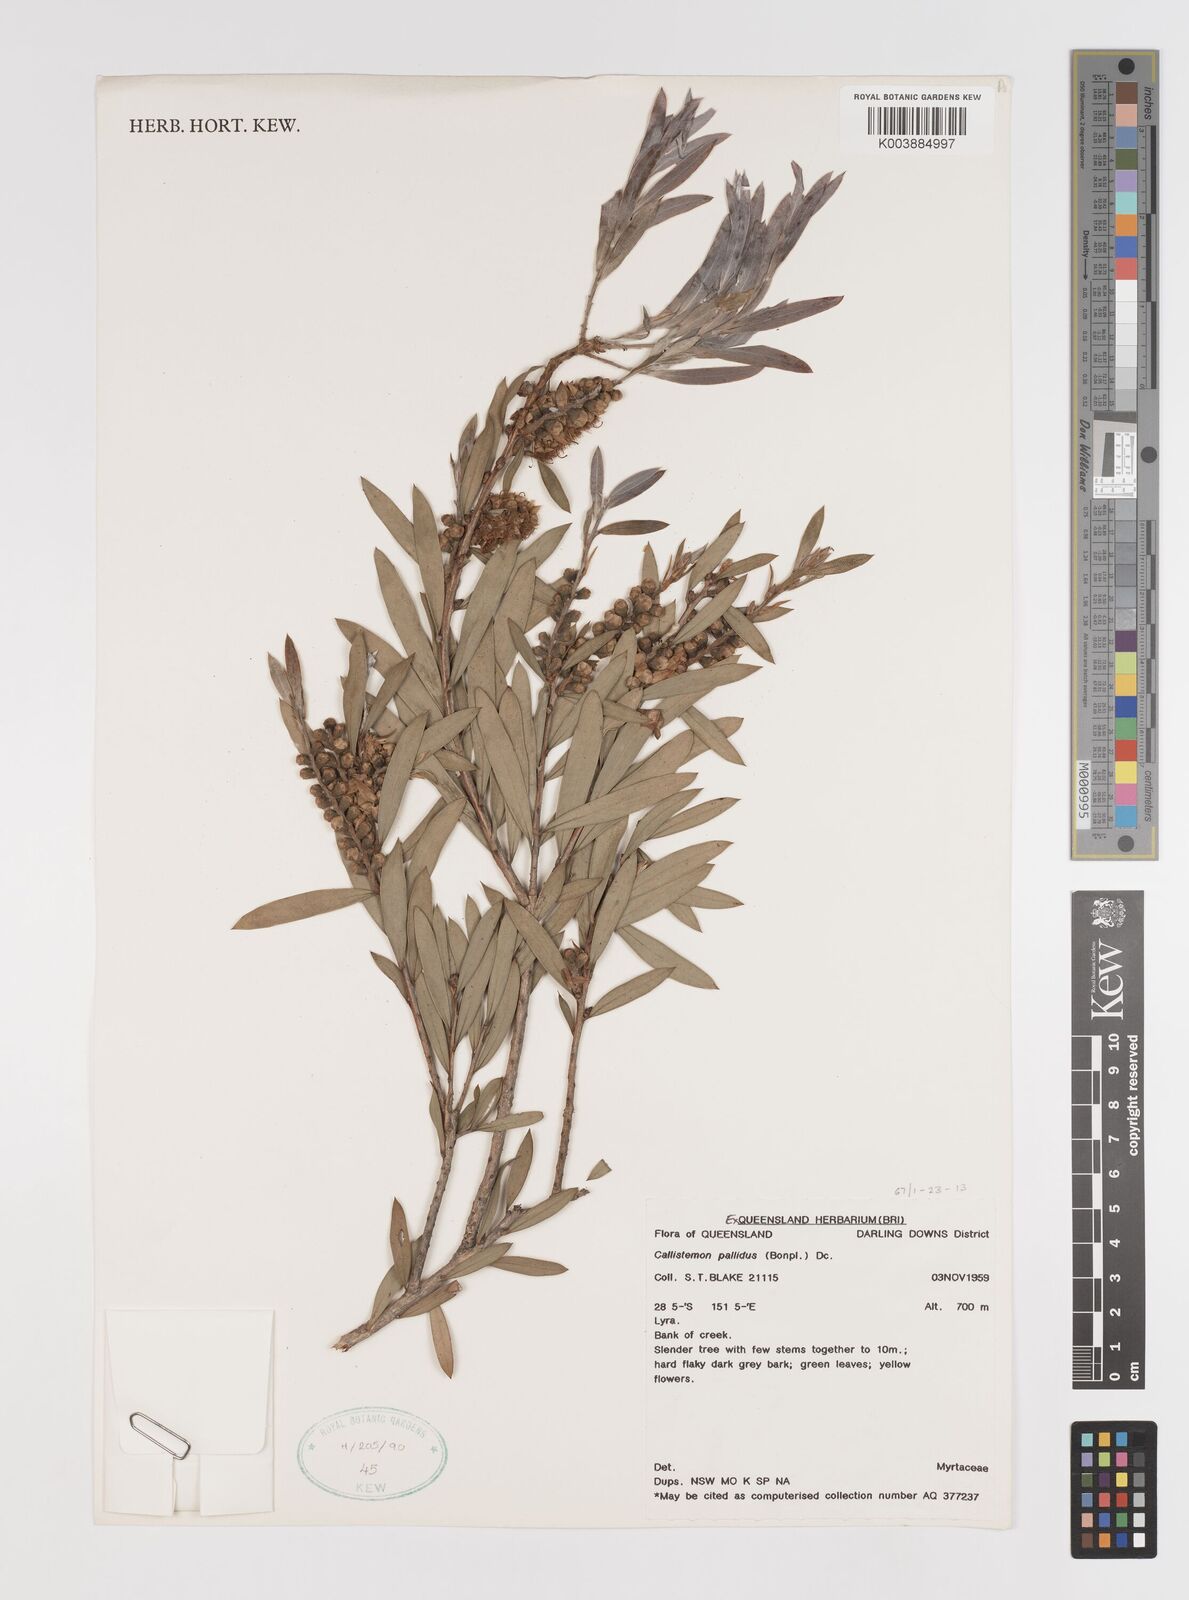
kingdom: Plantae
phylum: Tracheophyta
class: Magnoliopsida
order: Myrtales
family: Myrtaceae
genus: Melaleuca
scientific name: Melaleuca pallida
